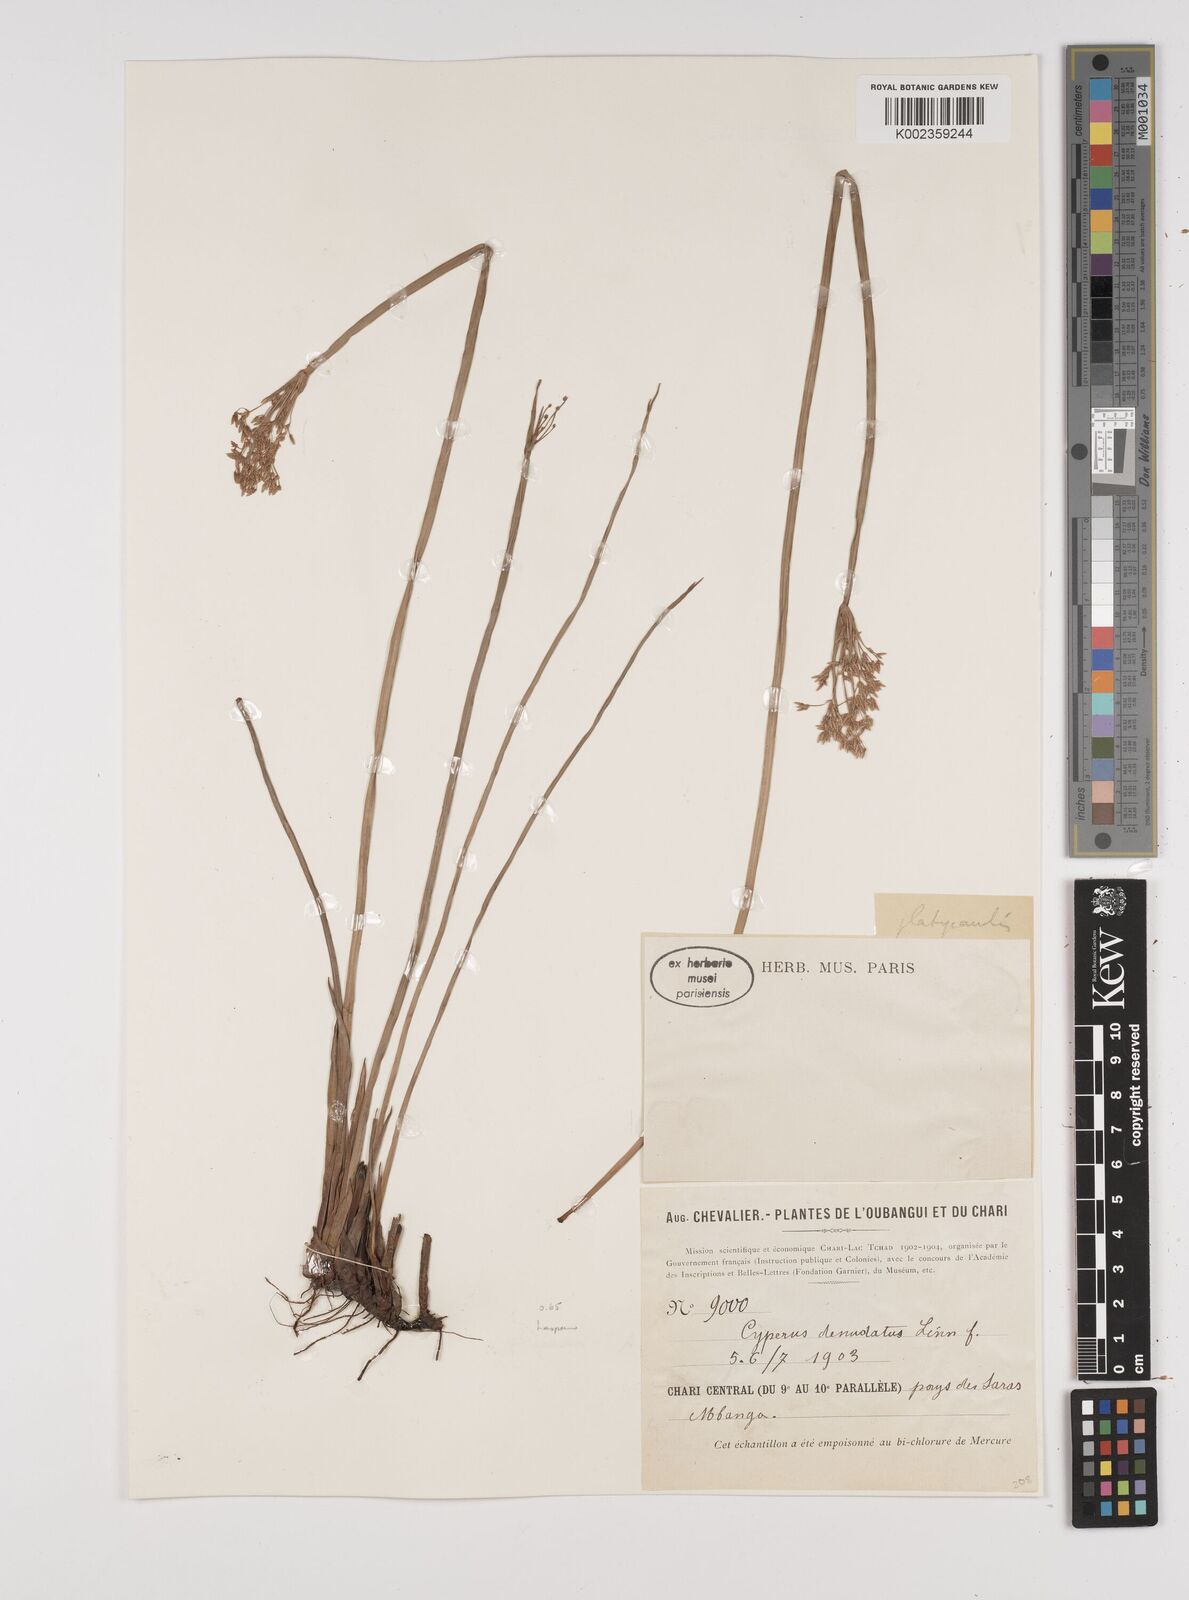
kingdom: Plantae
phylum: Tracheophyta
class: Liliopsida
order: Poales
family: Cyperaceae
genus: Cyperus
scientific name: Cyperus haspan
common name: Haspan flatsedge
